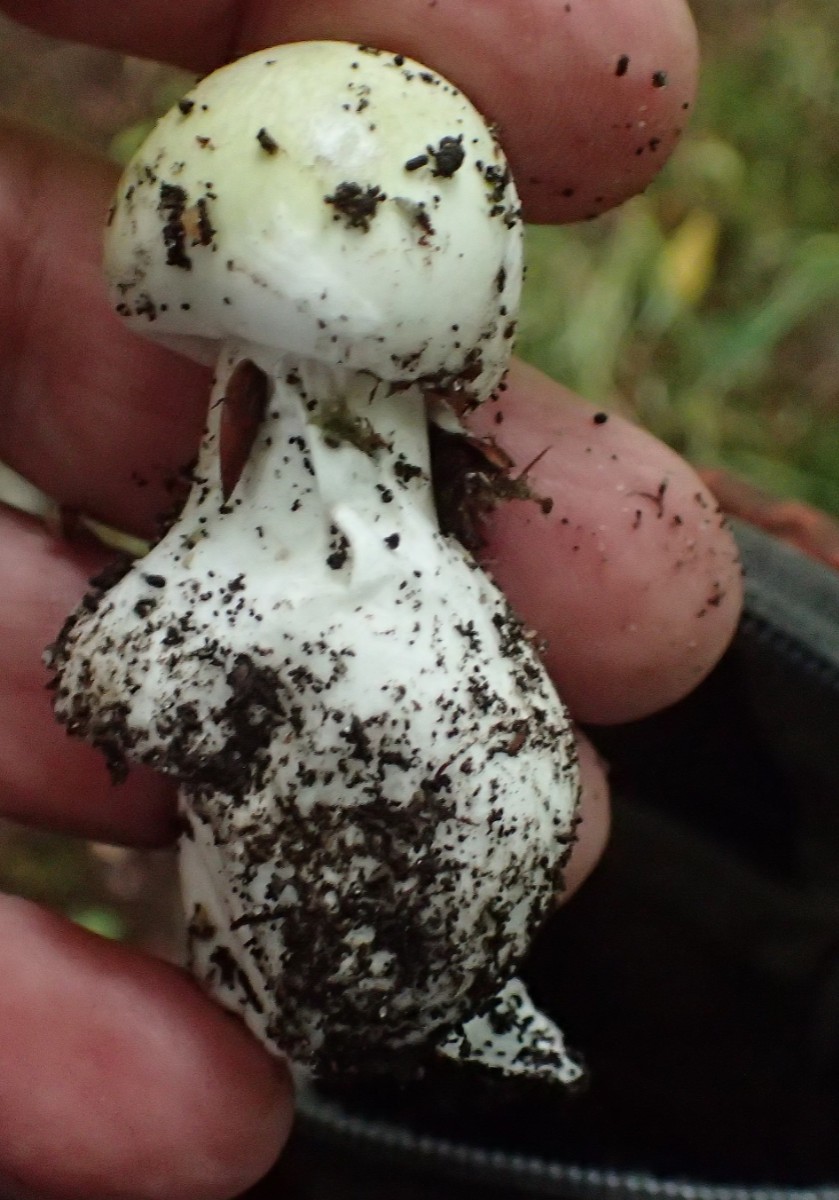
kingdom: Fungi
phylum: Basidiomycota
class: Agaricomycetes
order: Agaricales
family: Amanitaceae
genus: Amanita
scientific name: Amanita phalloides
